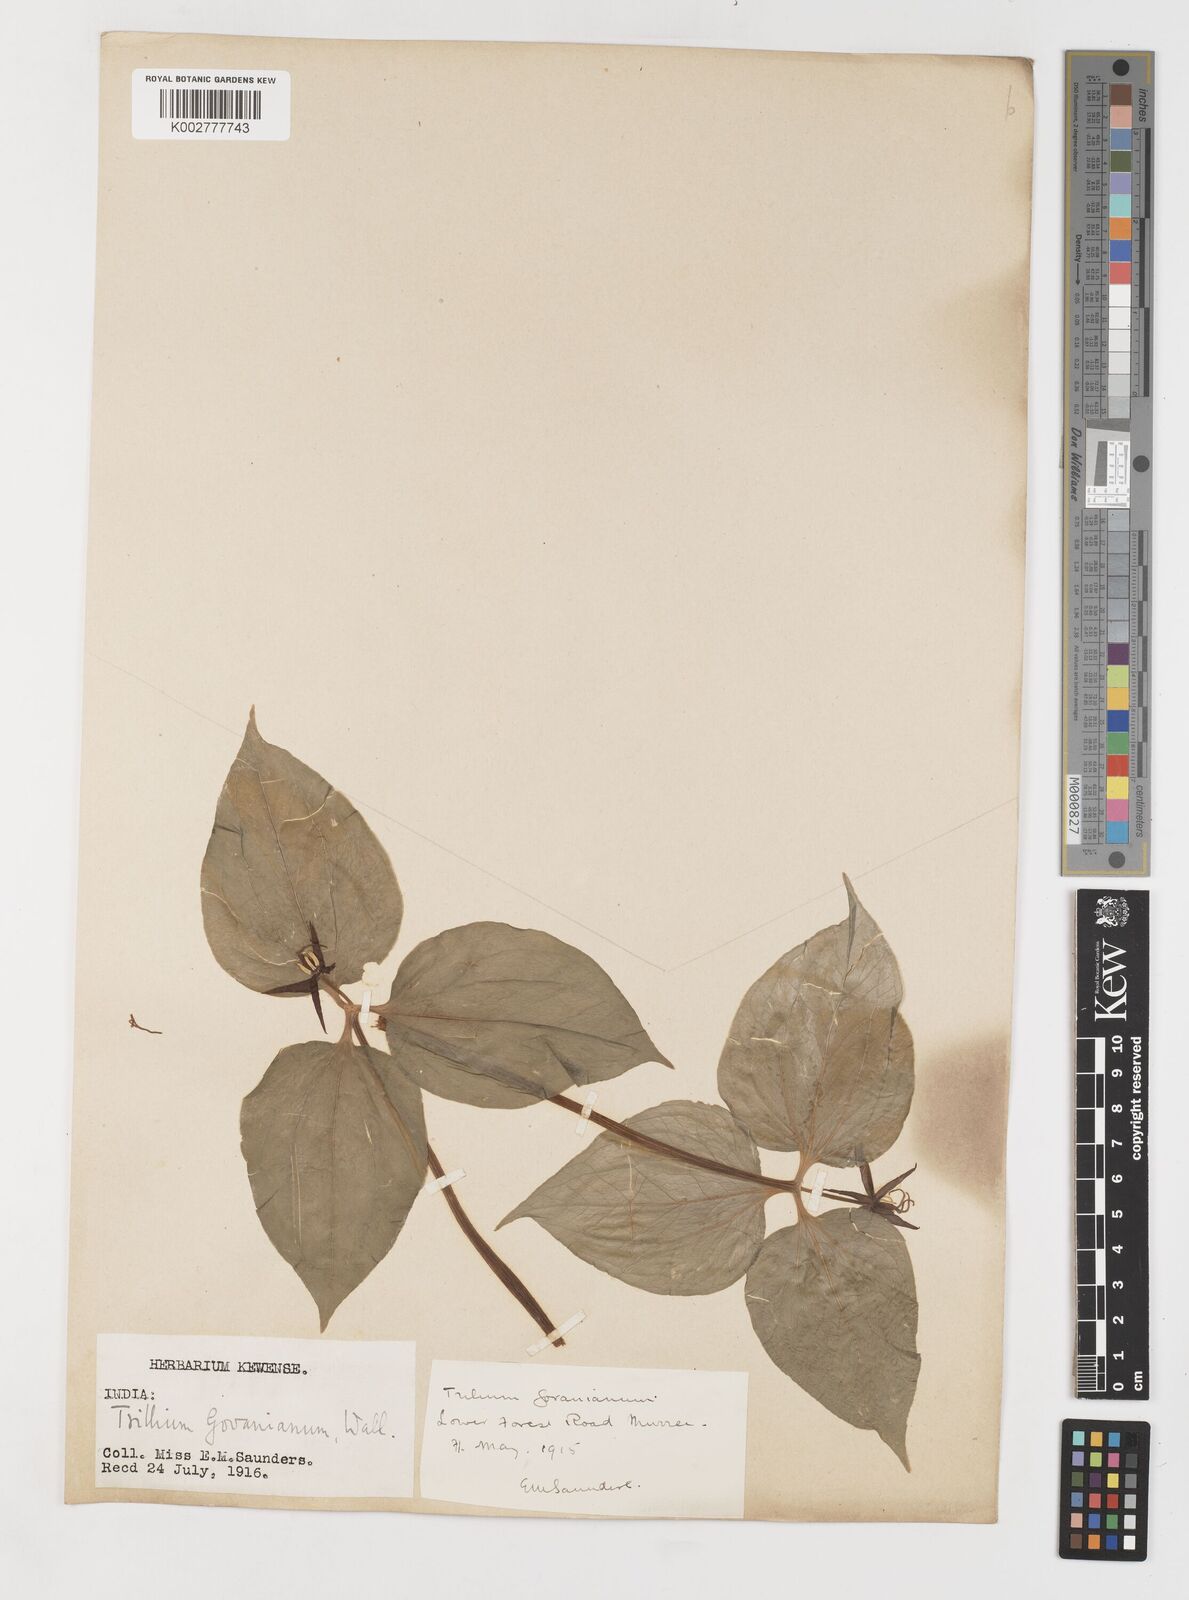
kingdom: Plantae
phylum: Tracheophyta
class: Liliopsida
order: Liliales
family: Melanthiaceae
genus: Trillium
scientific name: Trillium govanianum
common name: Himalayan trillium
